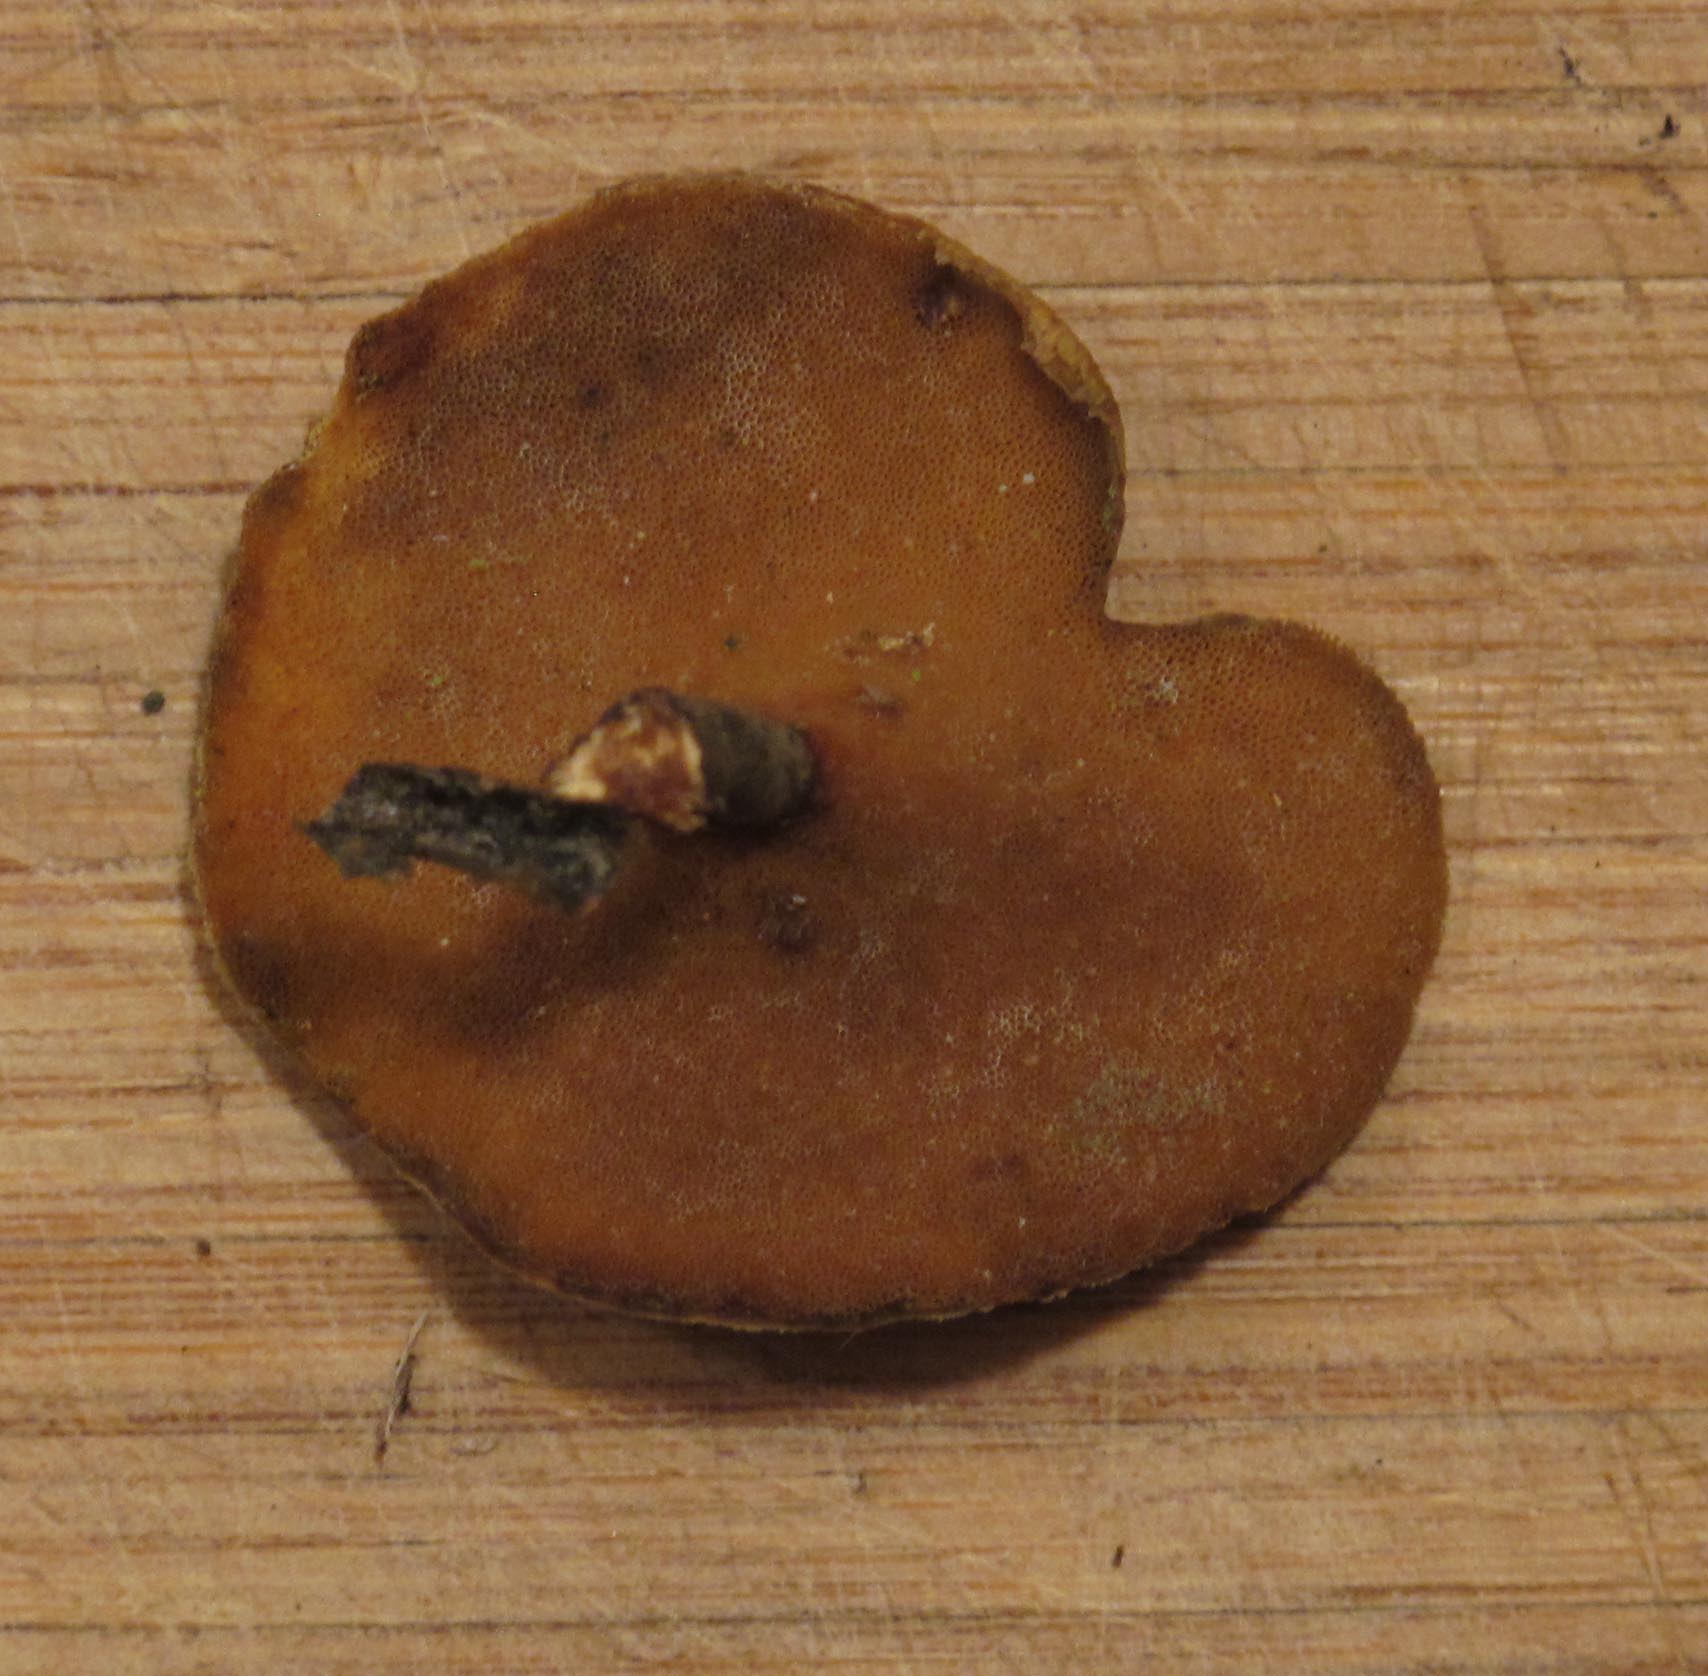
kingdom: Fungi
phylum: Basidiomycota
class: Agaricomycetes
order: Polyporales
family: Polyporaceae
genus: Cerioporus
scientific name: Cerioporus varius
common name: foranderlig stilkporesvamp
